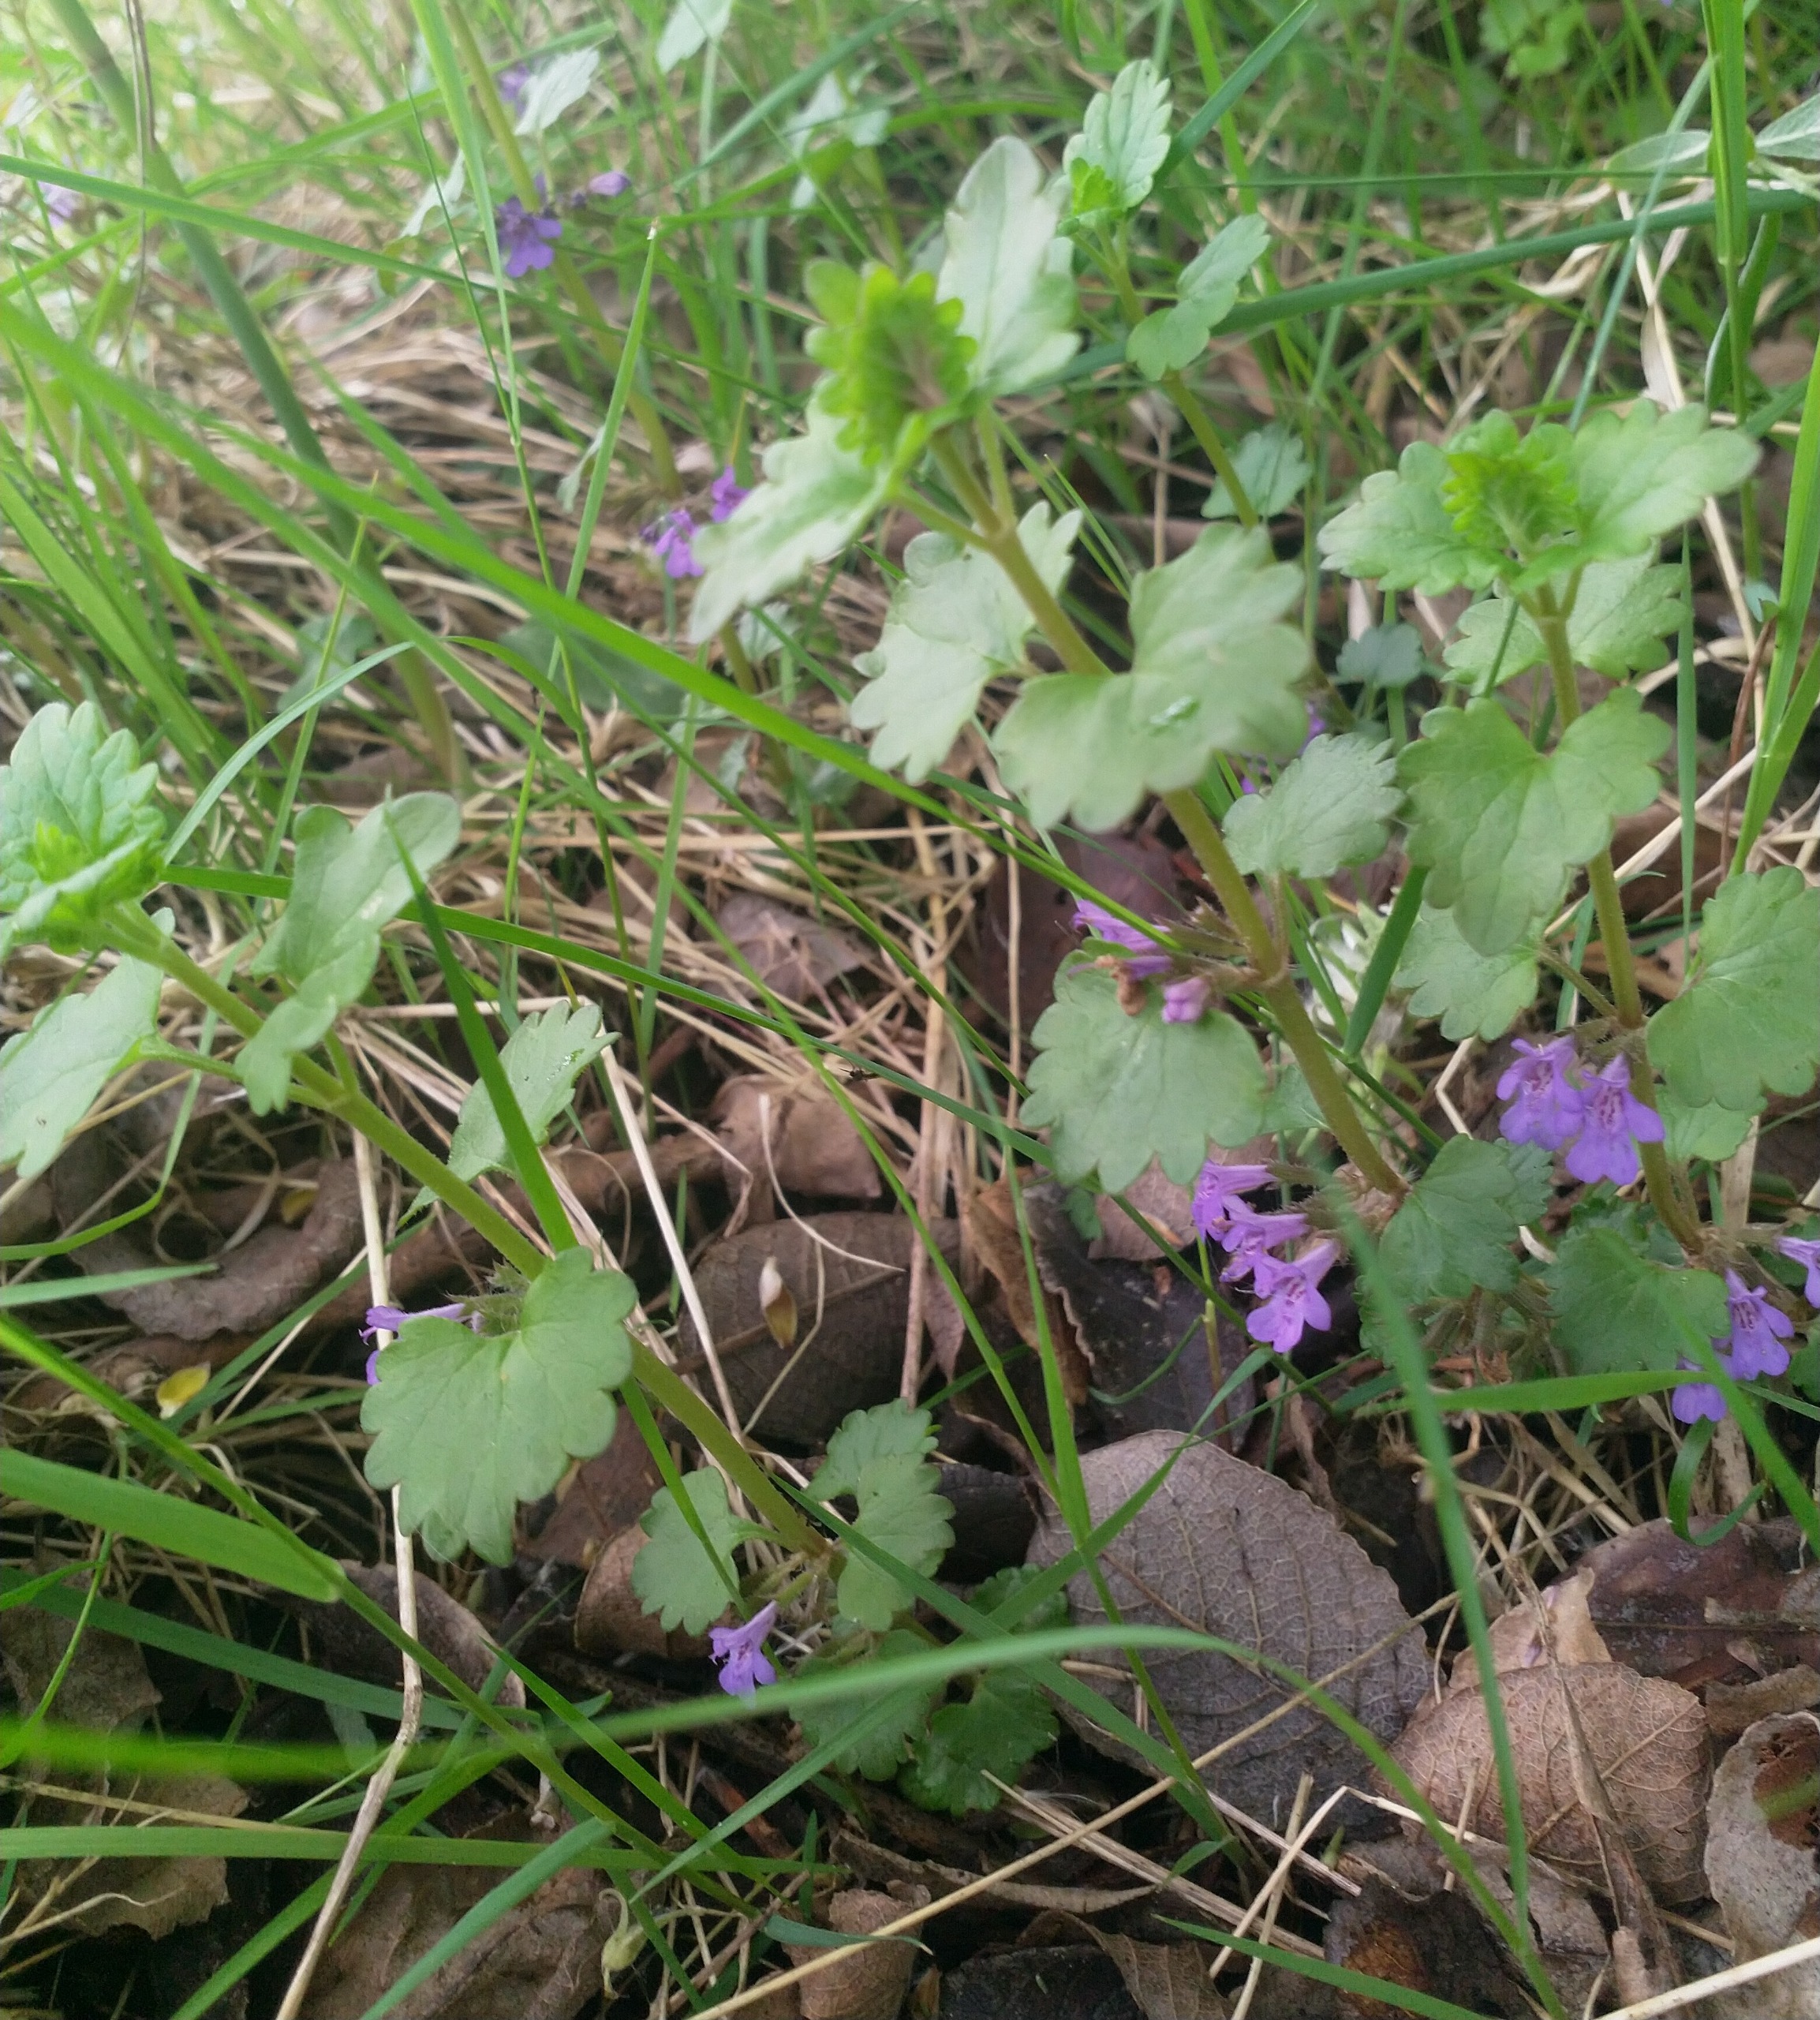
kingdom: Plantae
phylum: Tracheophyta
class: Magnoliopsida
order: Lamiales
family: Lamiaceae
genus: Glechoma
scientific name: Glechoma hederacea
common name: Korsknap
